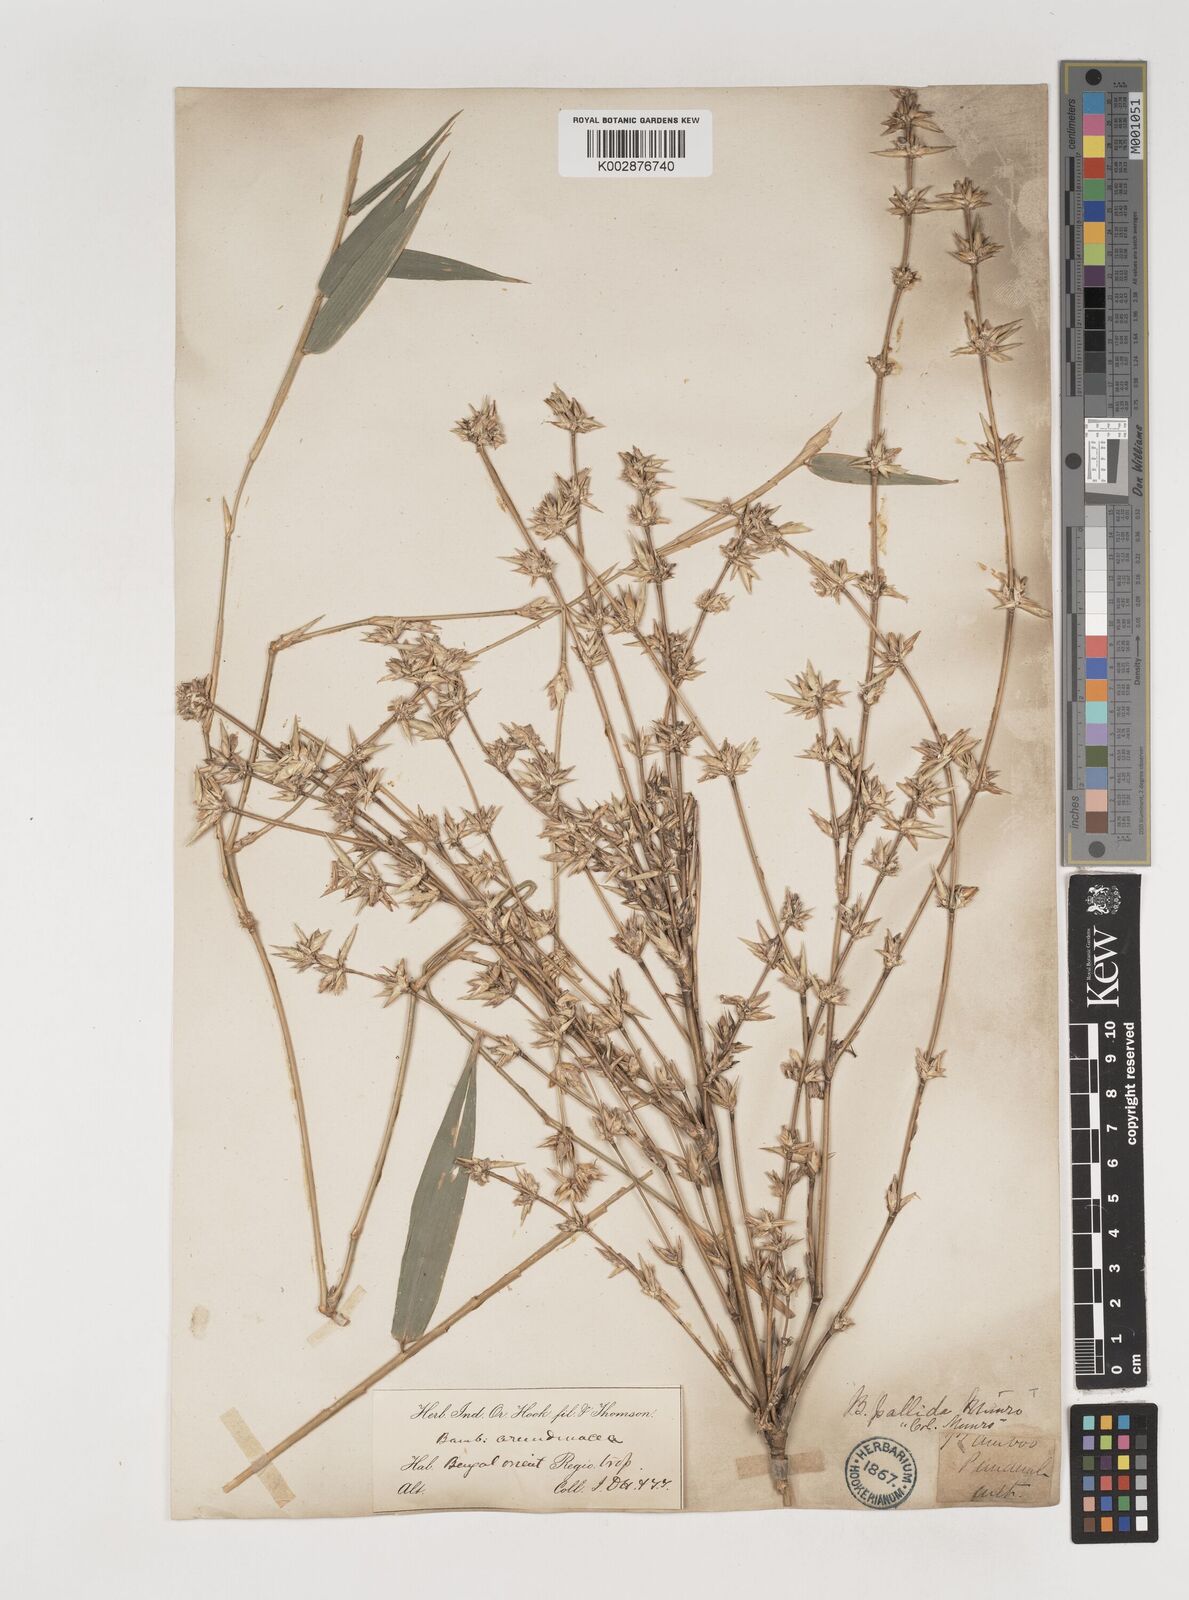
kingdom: Plantae
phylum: Tracheophyta
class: Liliopsida
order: Poales
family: Poaceae
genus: Bambusa
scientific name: Bambusa pallida
